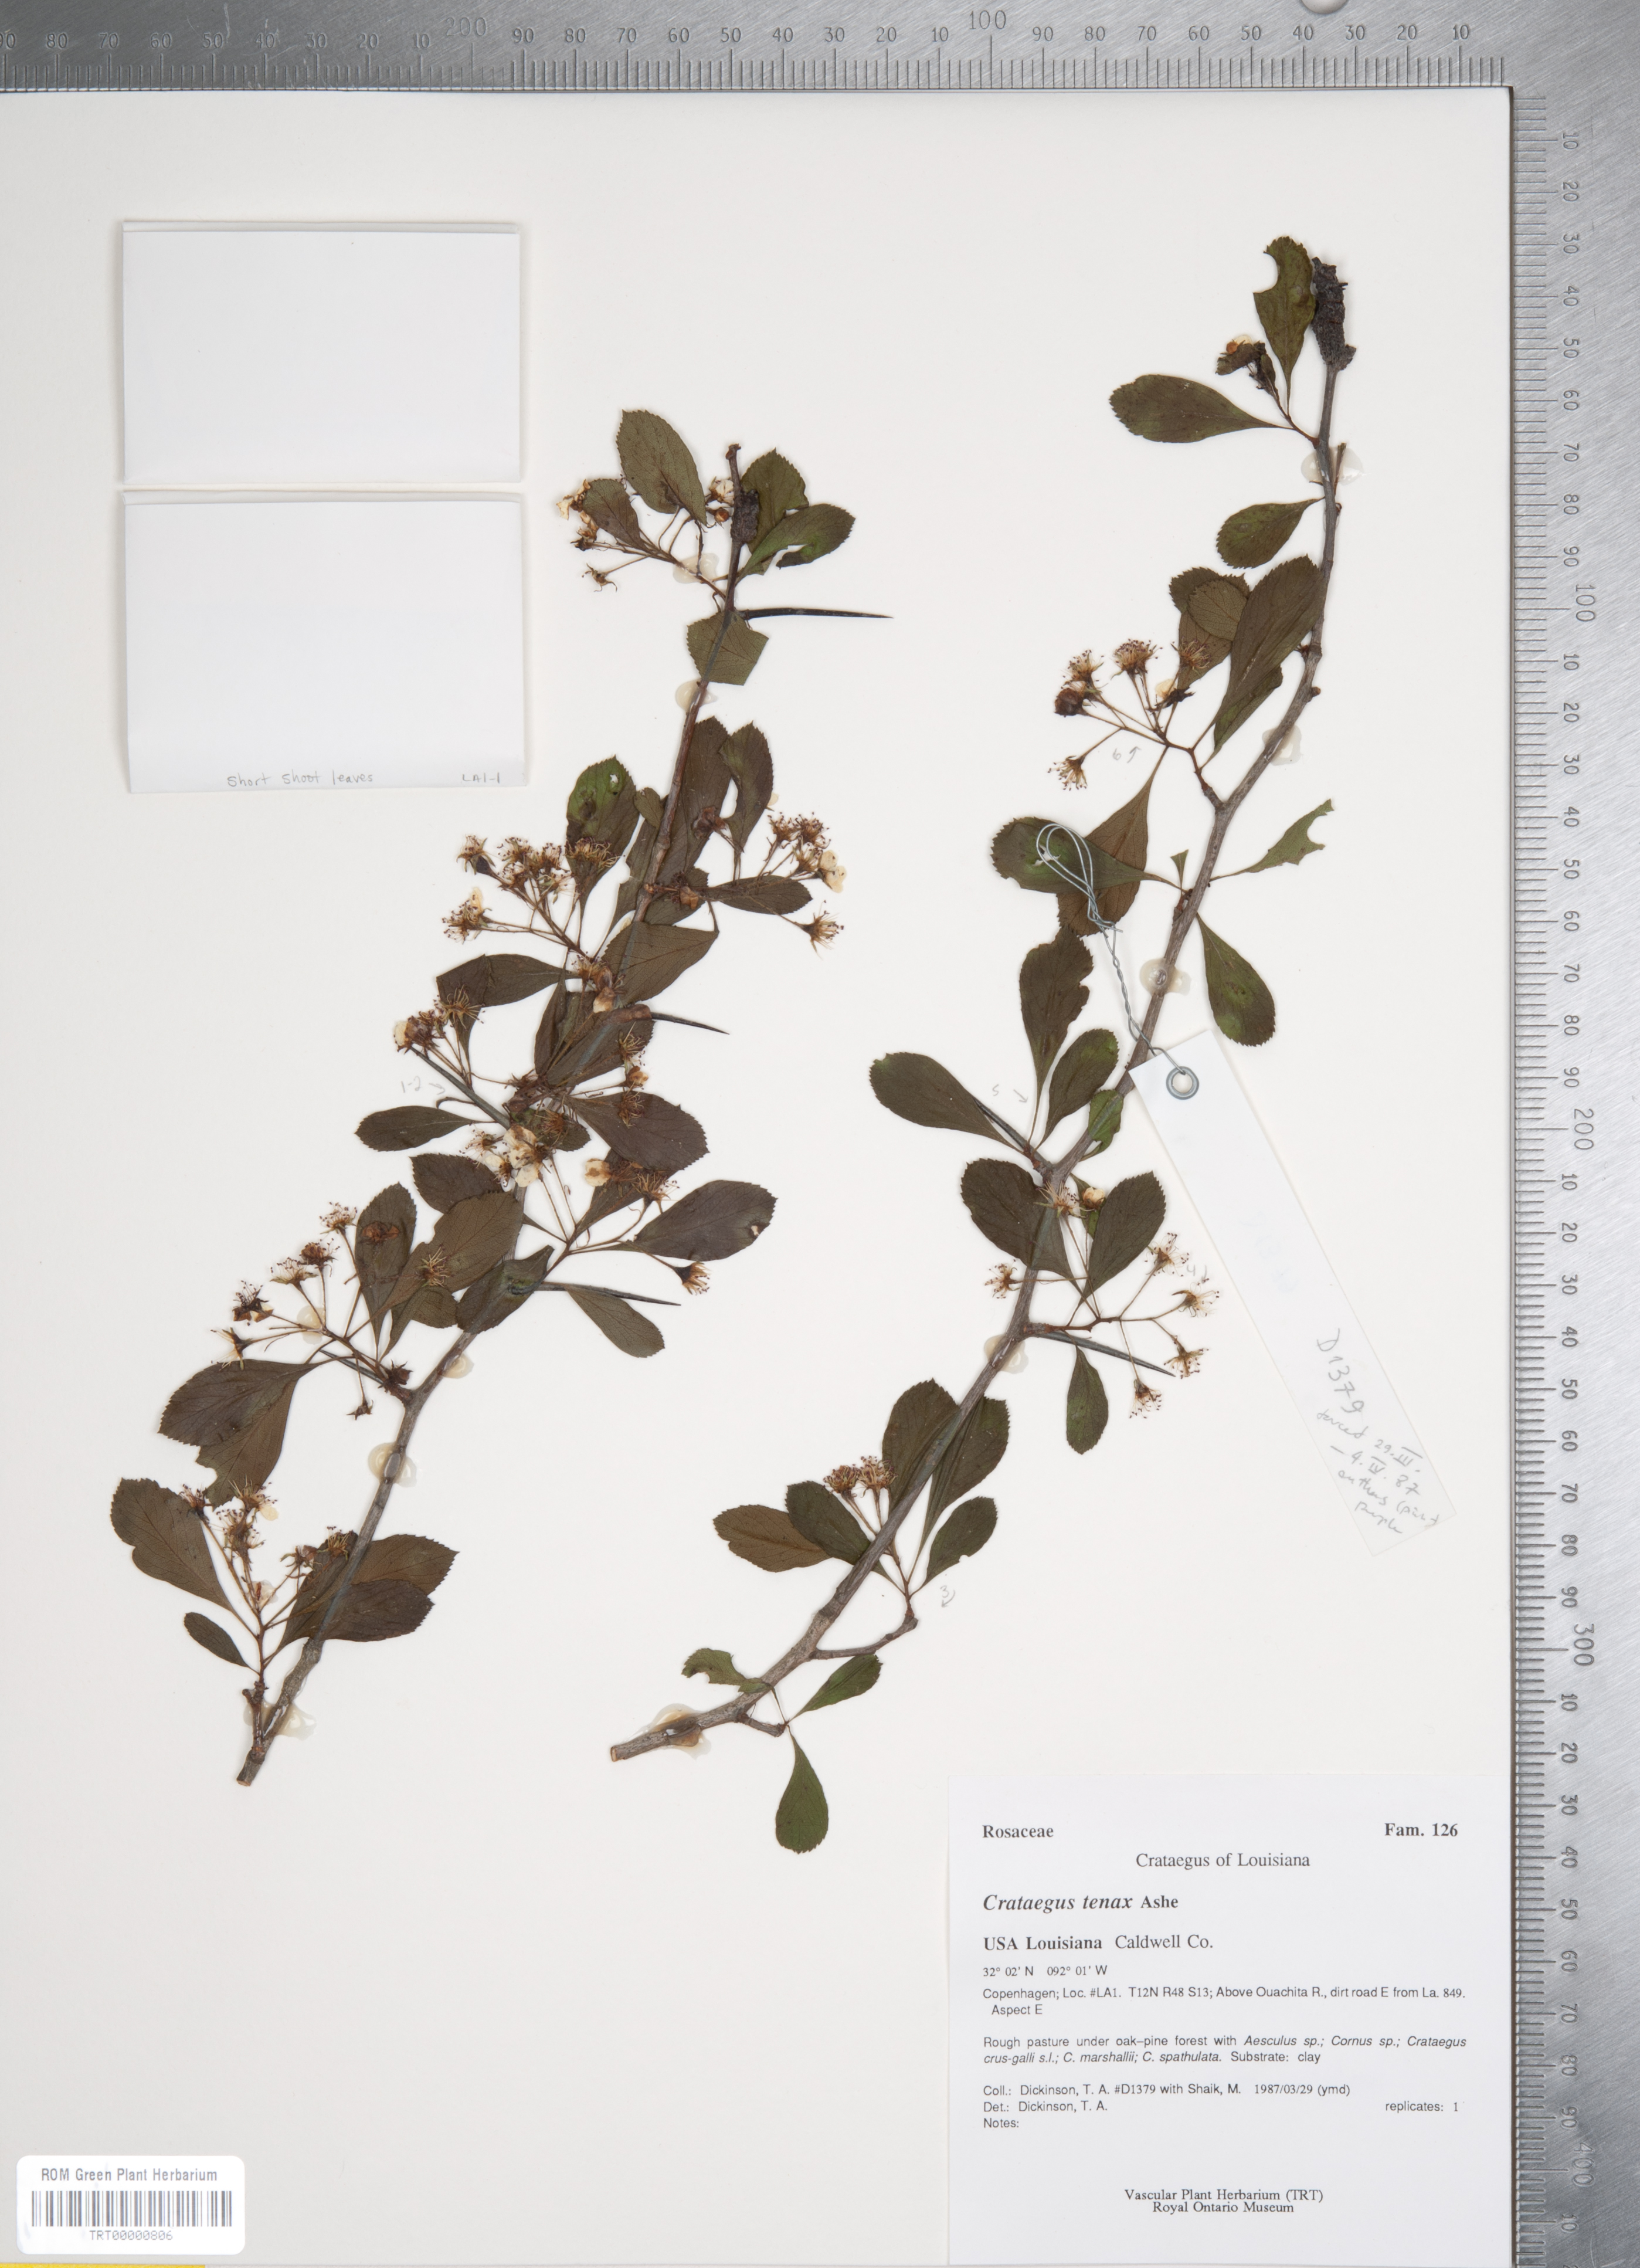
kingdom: Plantae
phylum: Tracheophyta
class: Magnoliopsida
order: Rosales
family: Rosaceae
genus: Crataegus
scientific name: Crataegus crus-galli
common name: Cockspurthorn
